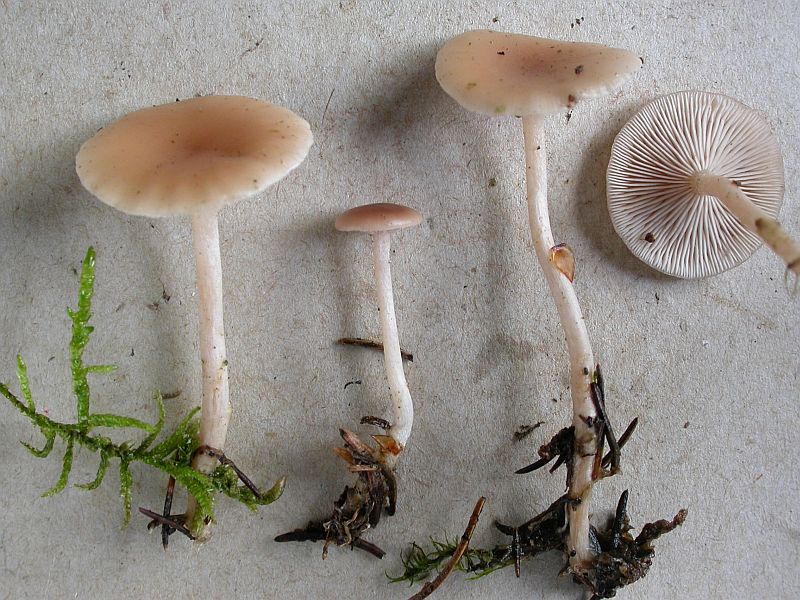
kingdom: Fungi
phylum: Basidiomycota
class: Agaricomycetes
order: Agaricales
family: Tricholomataceae
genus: Clitocybe
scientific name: Clitocybe diatreta
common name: kødfarvet tragthat
